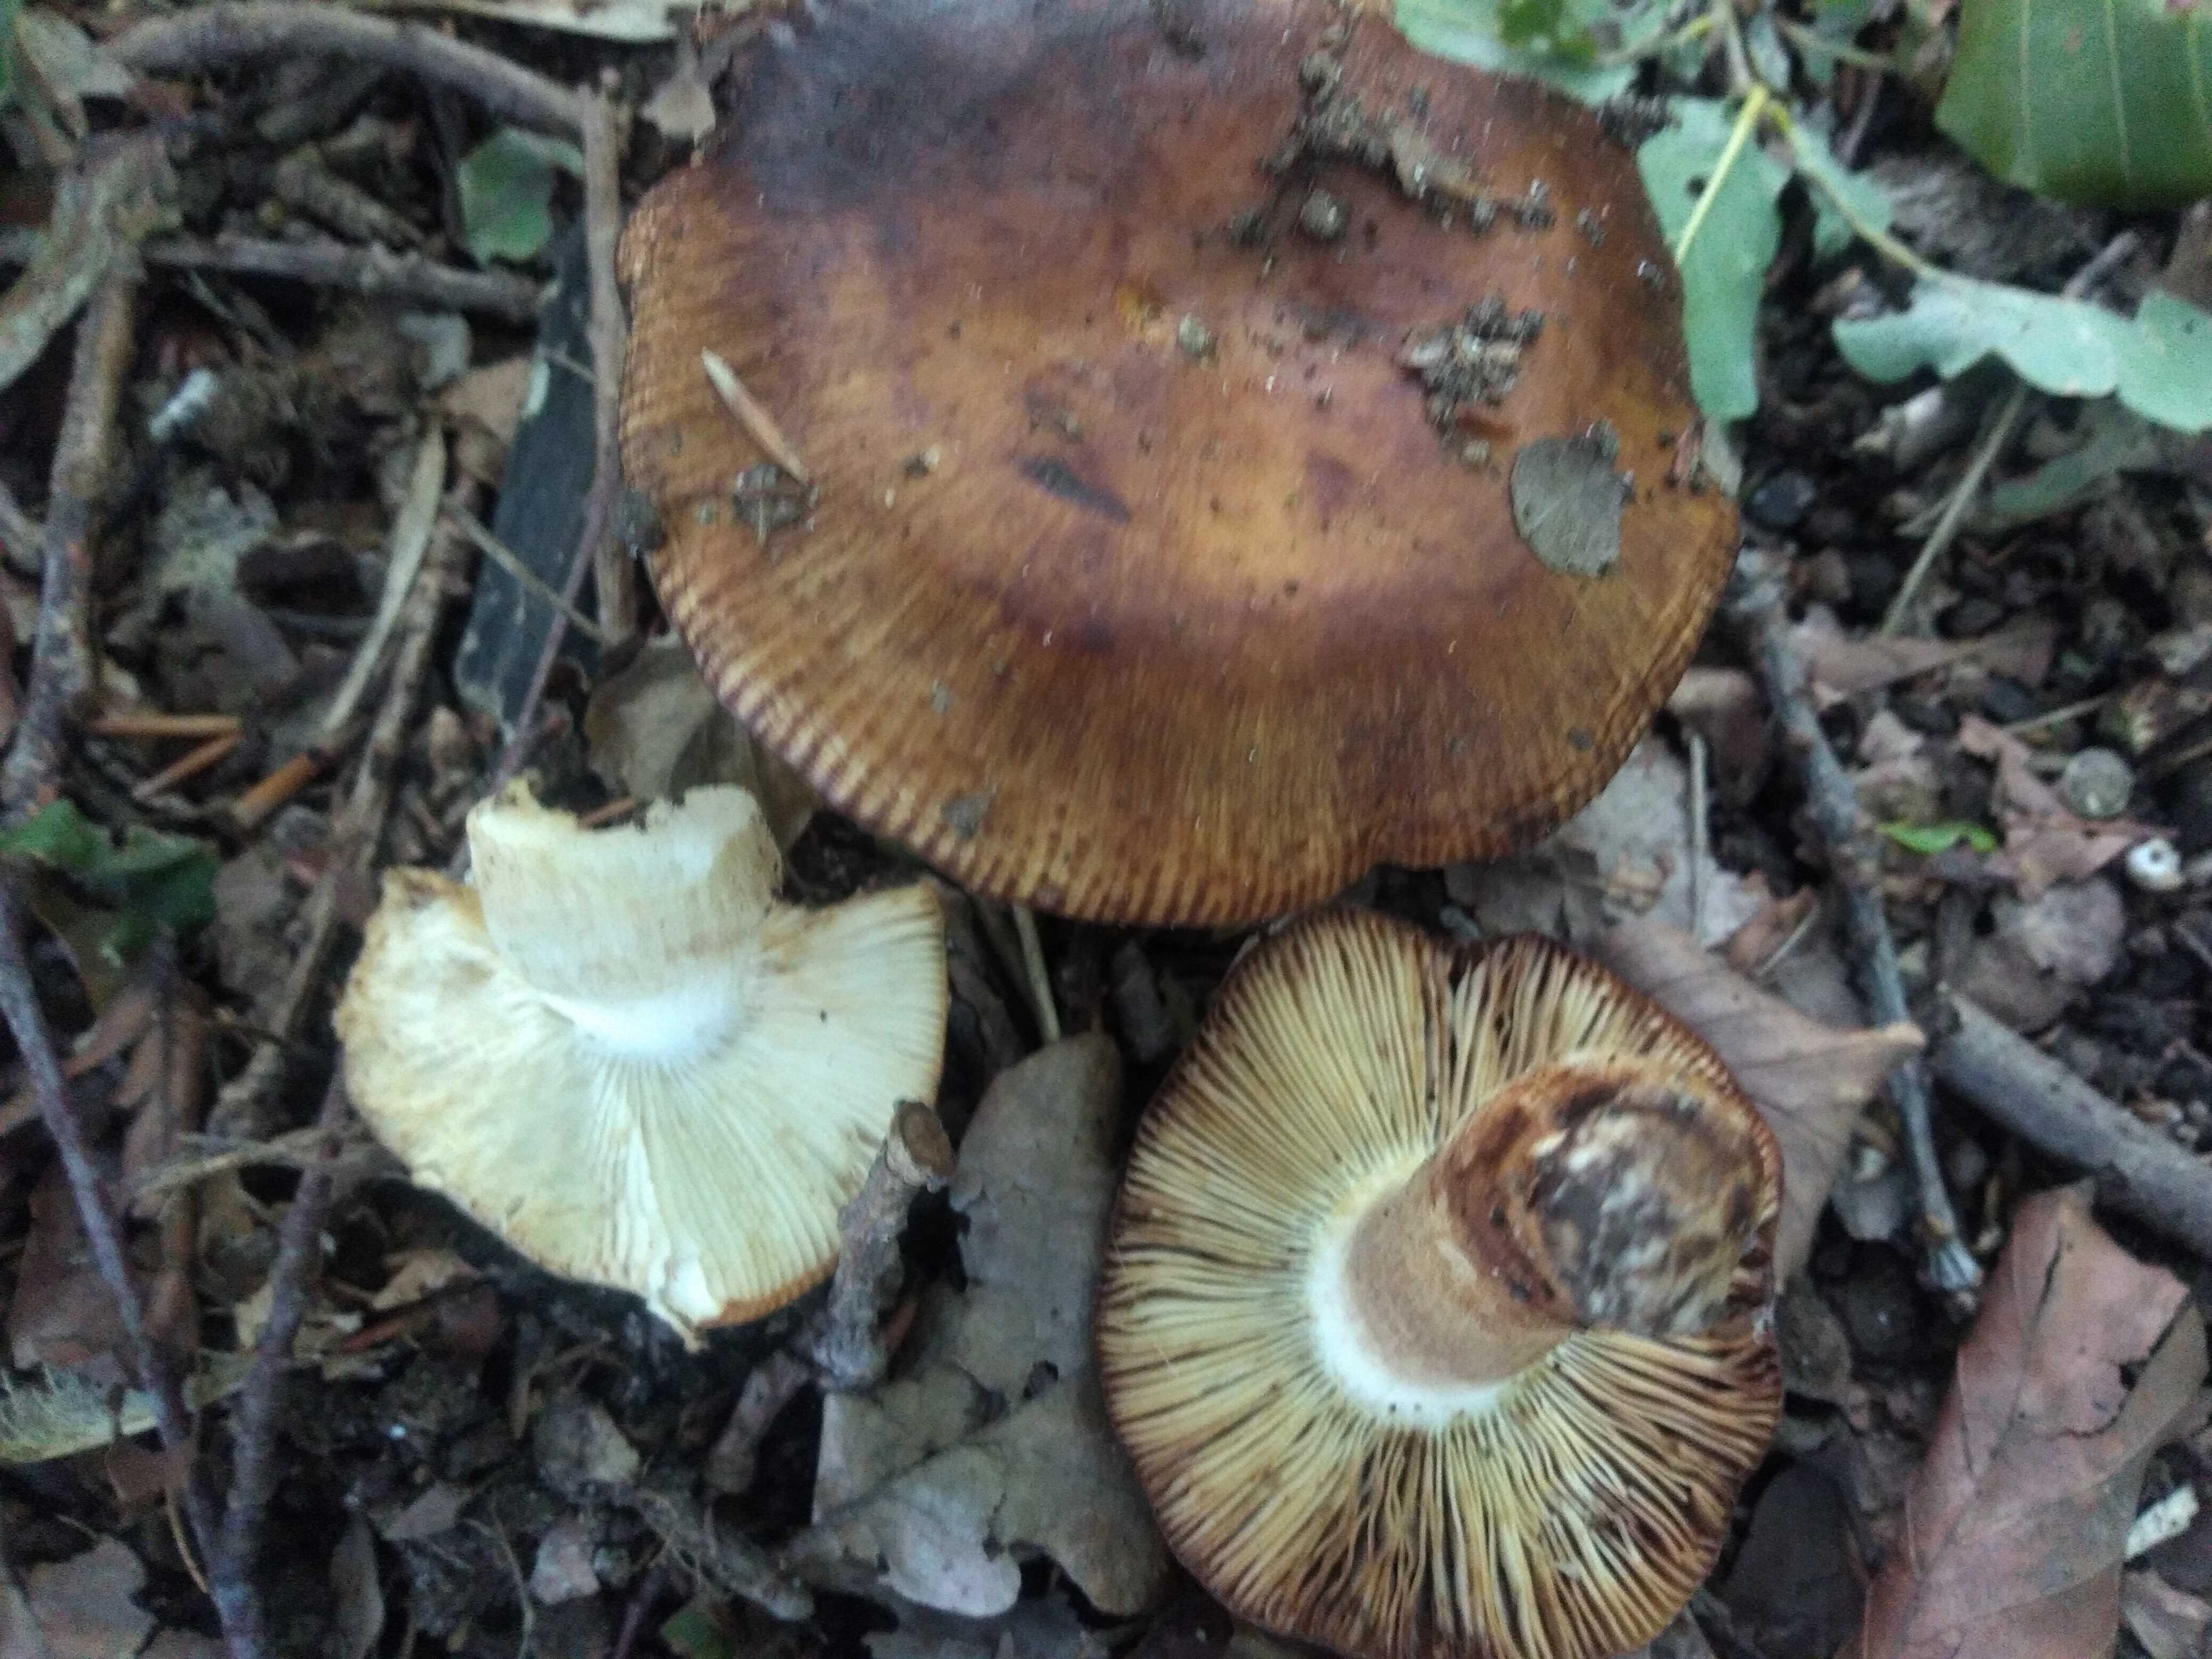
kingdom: Fungi
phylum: Basidiomycota
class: Agaricomycetes
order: Russulales
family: Russulaceae
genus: Russula
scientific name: Russula grata
